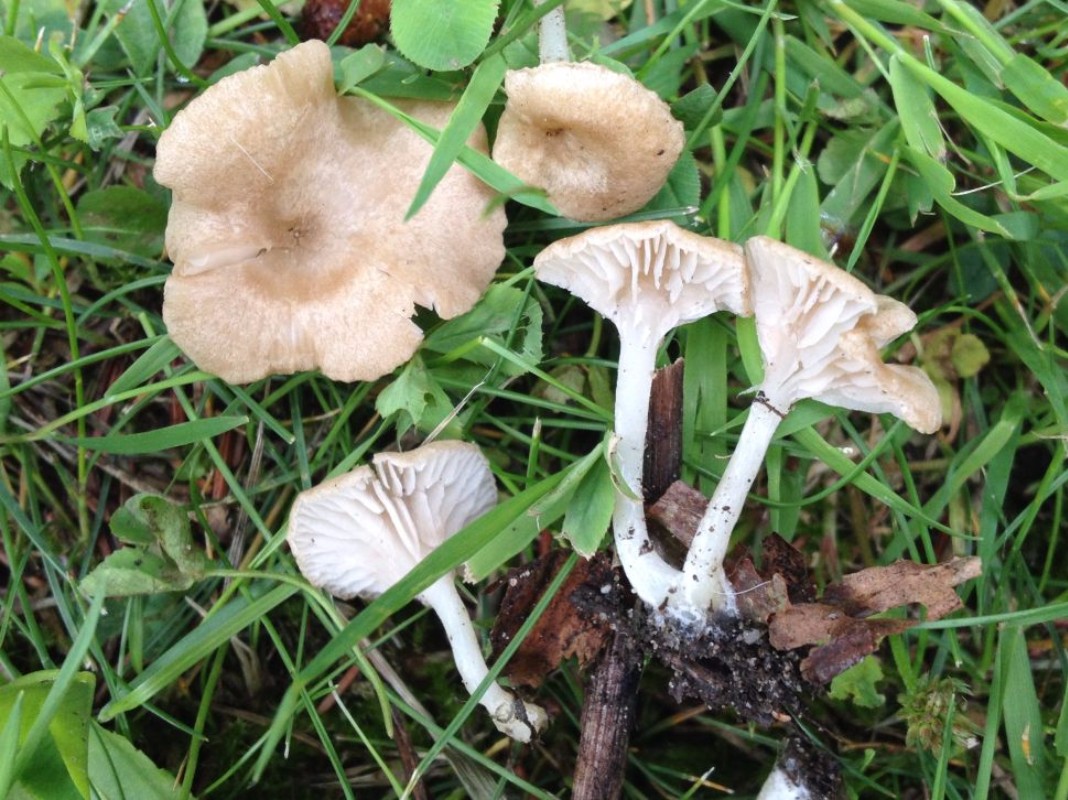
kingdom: Fungi
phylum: Basidiomycota
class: Agaricomycetes
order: Agaricales
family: Entolomataceae
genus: Entoloma
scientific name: Entoloma neglectum
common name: bleg rødblad
